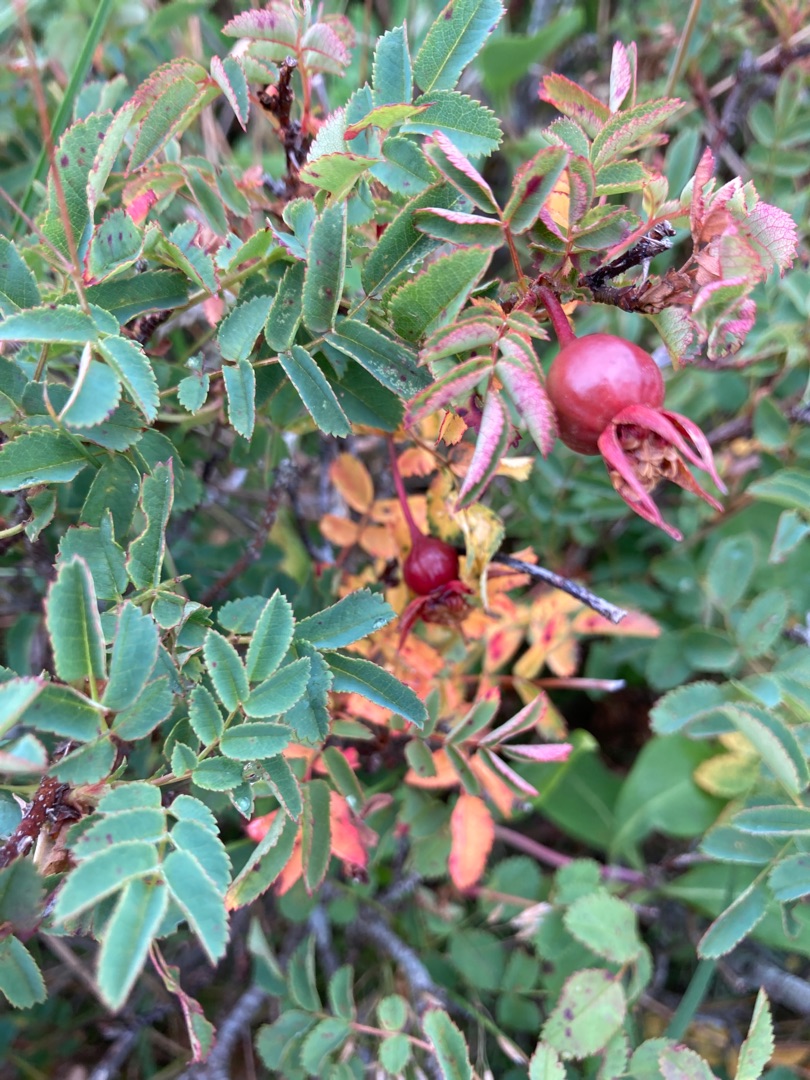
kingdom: Plantae
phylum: Tracheophyta
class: Magnoliopsida
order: Rosales
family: Rosaceae
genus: Rosa
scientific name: Rosa spinosissima
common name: Klit-rose
